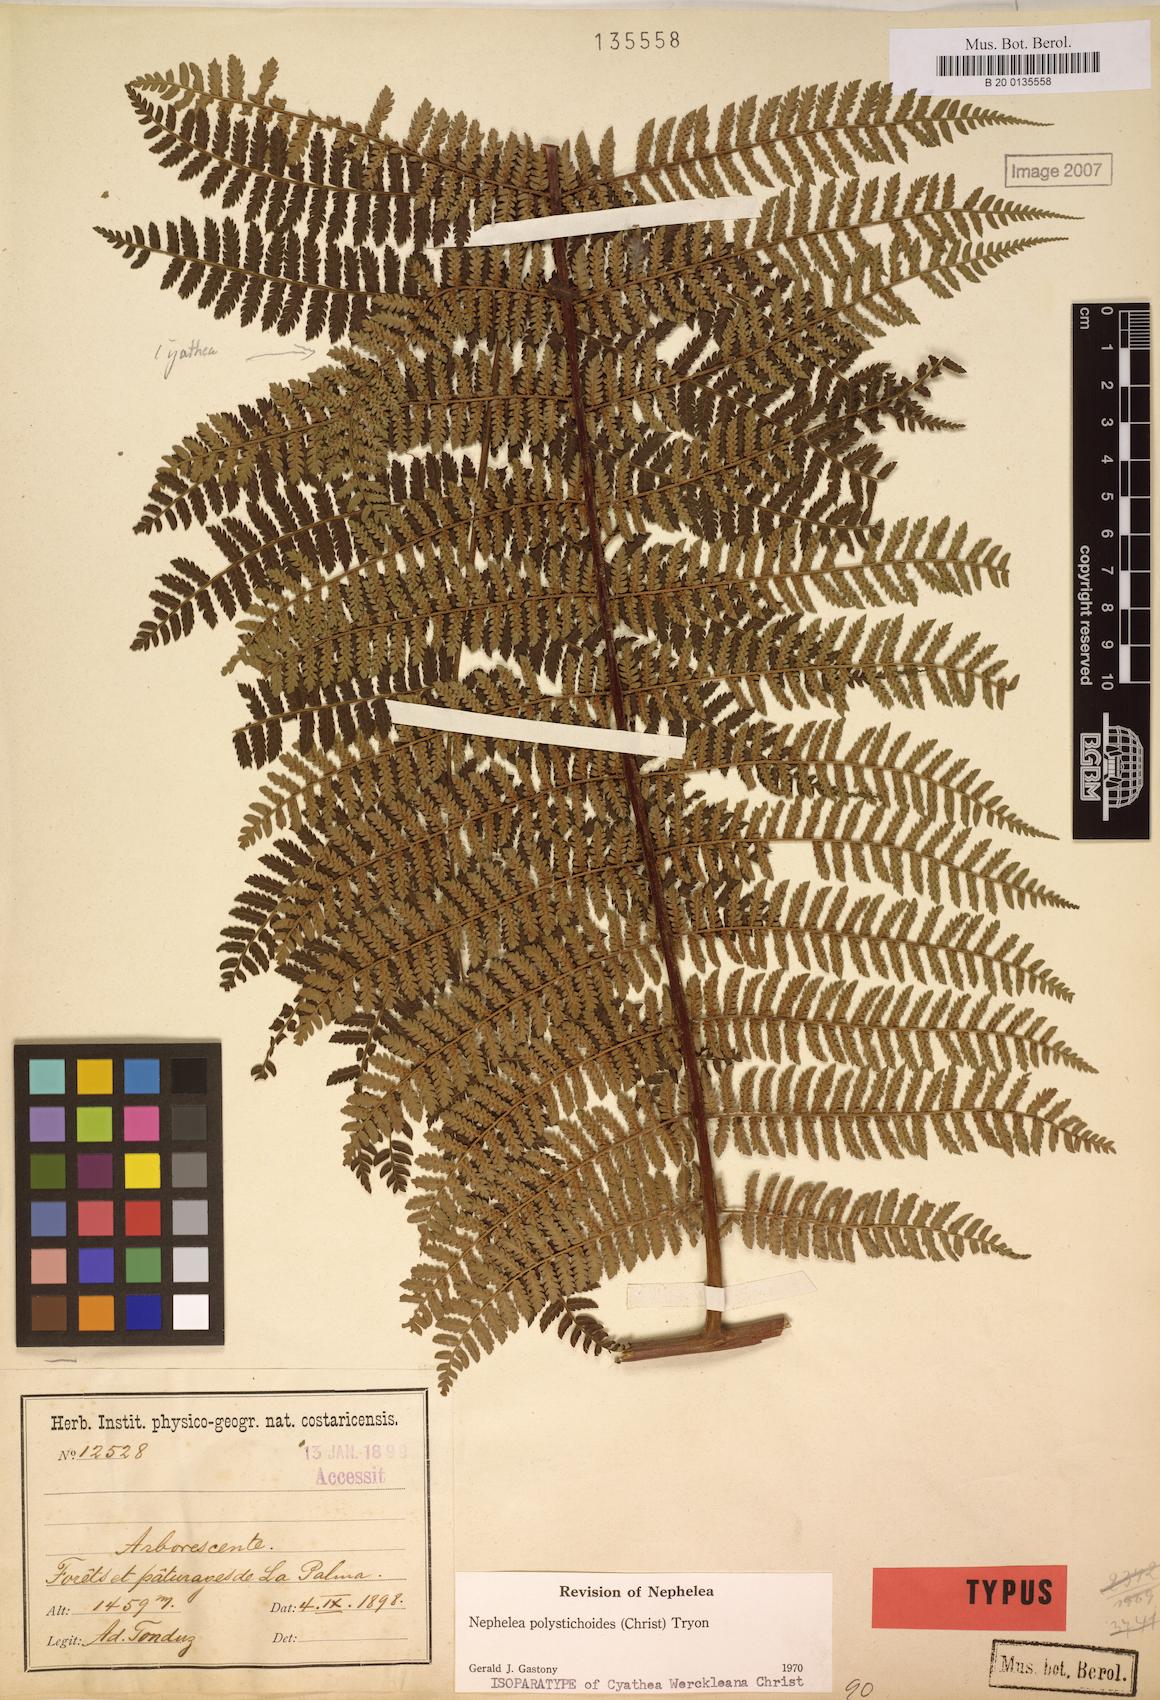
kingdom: Plantae
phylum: Tracheophyta
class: Polypodiopsida
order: Cyatheales
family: Cyatheaceae
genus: Alsophila
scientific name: Alsophila polystichoides
